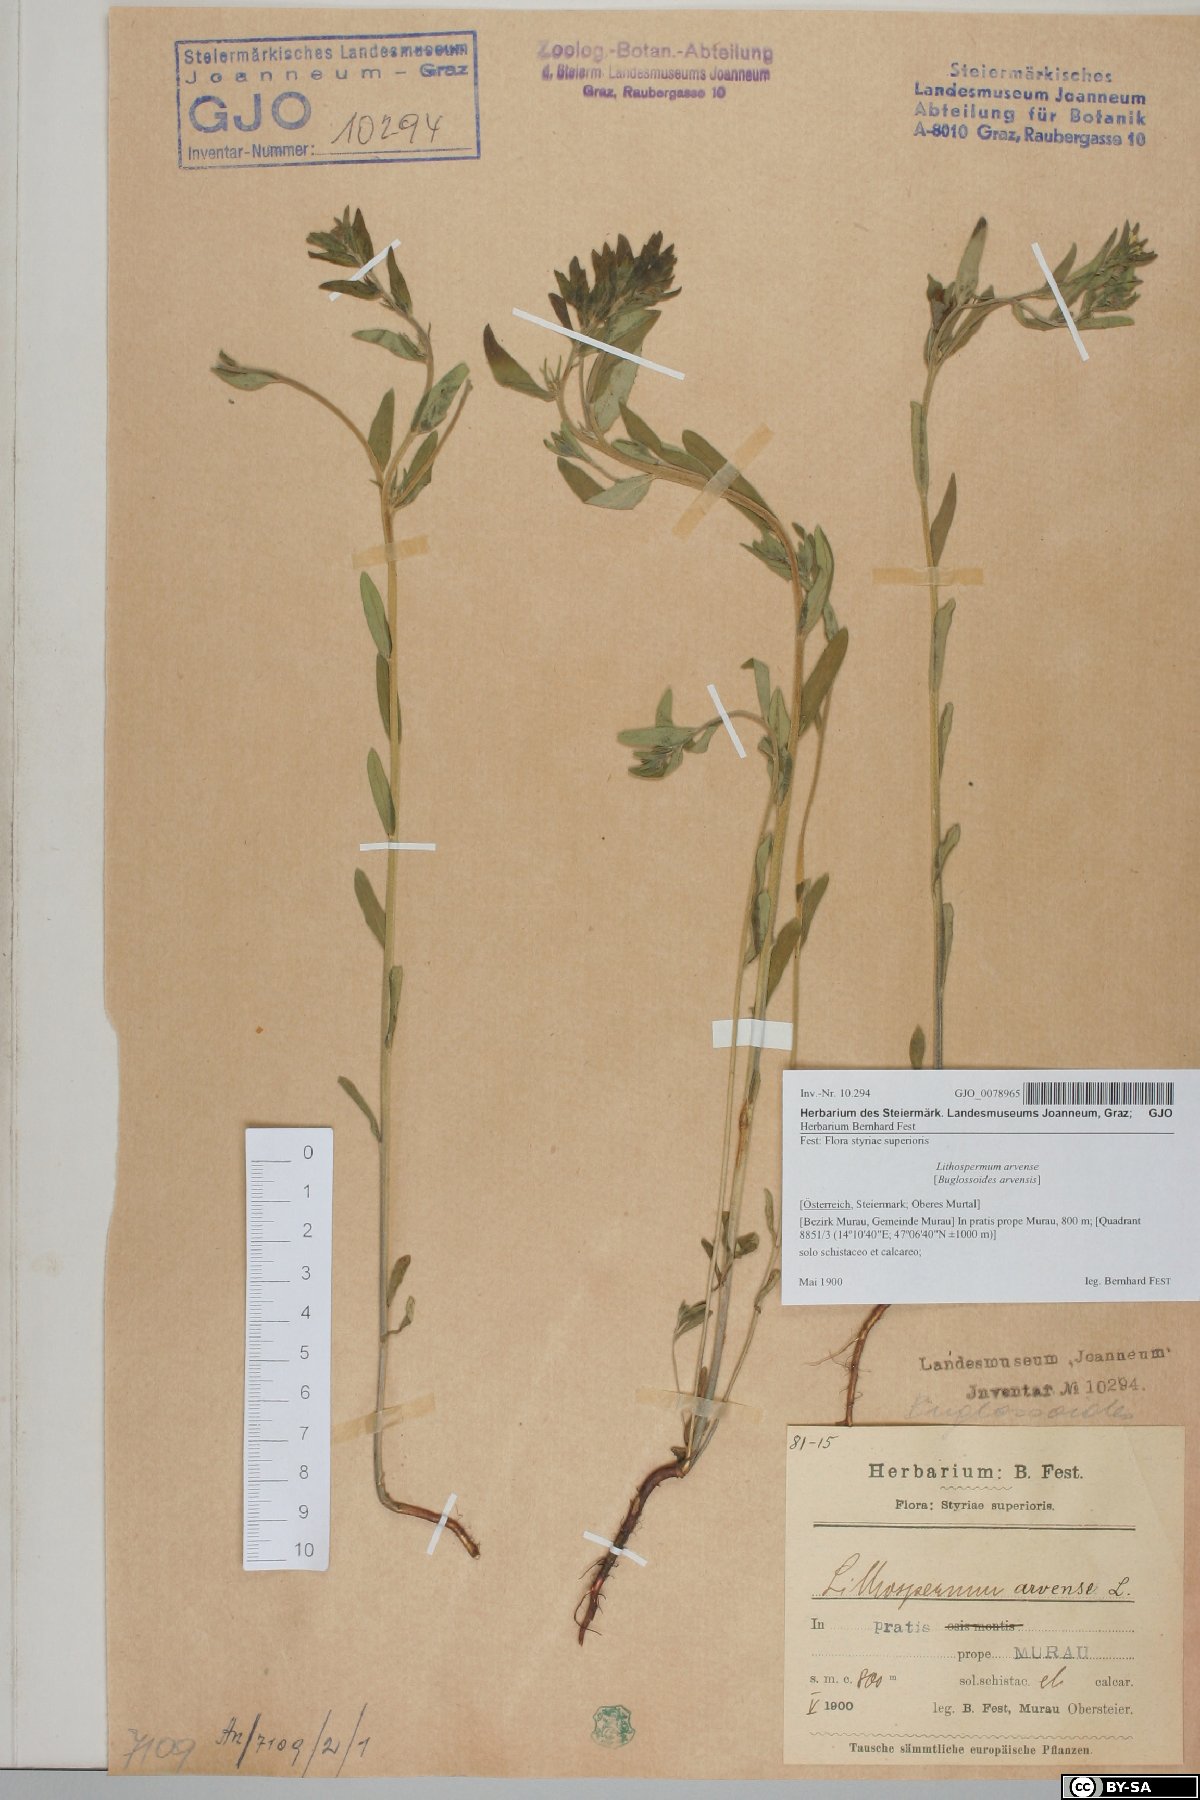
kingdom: Plantae
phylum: Tracheophyta
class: Magnoliopsida
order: Boraginales
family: Boraginaceae
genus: Buglossoides
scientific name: Buglossoides arvensis
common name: Corn gromwell
